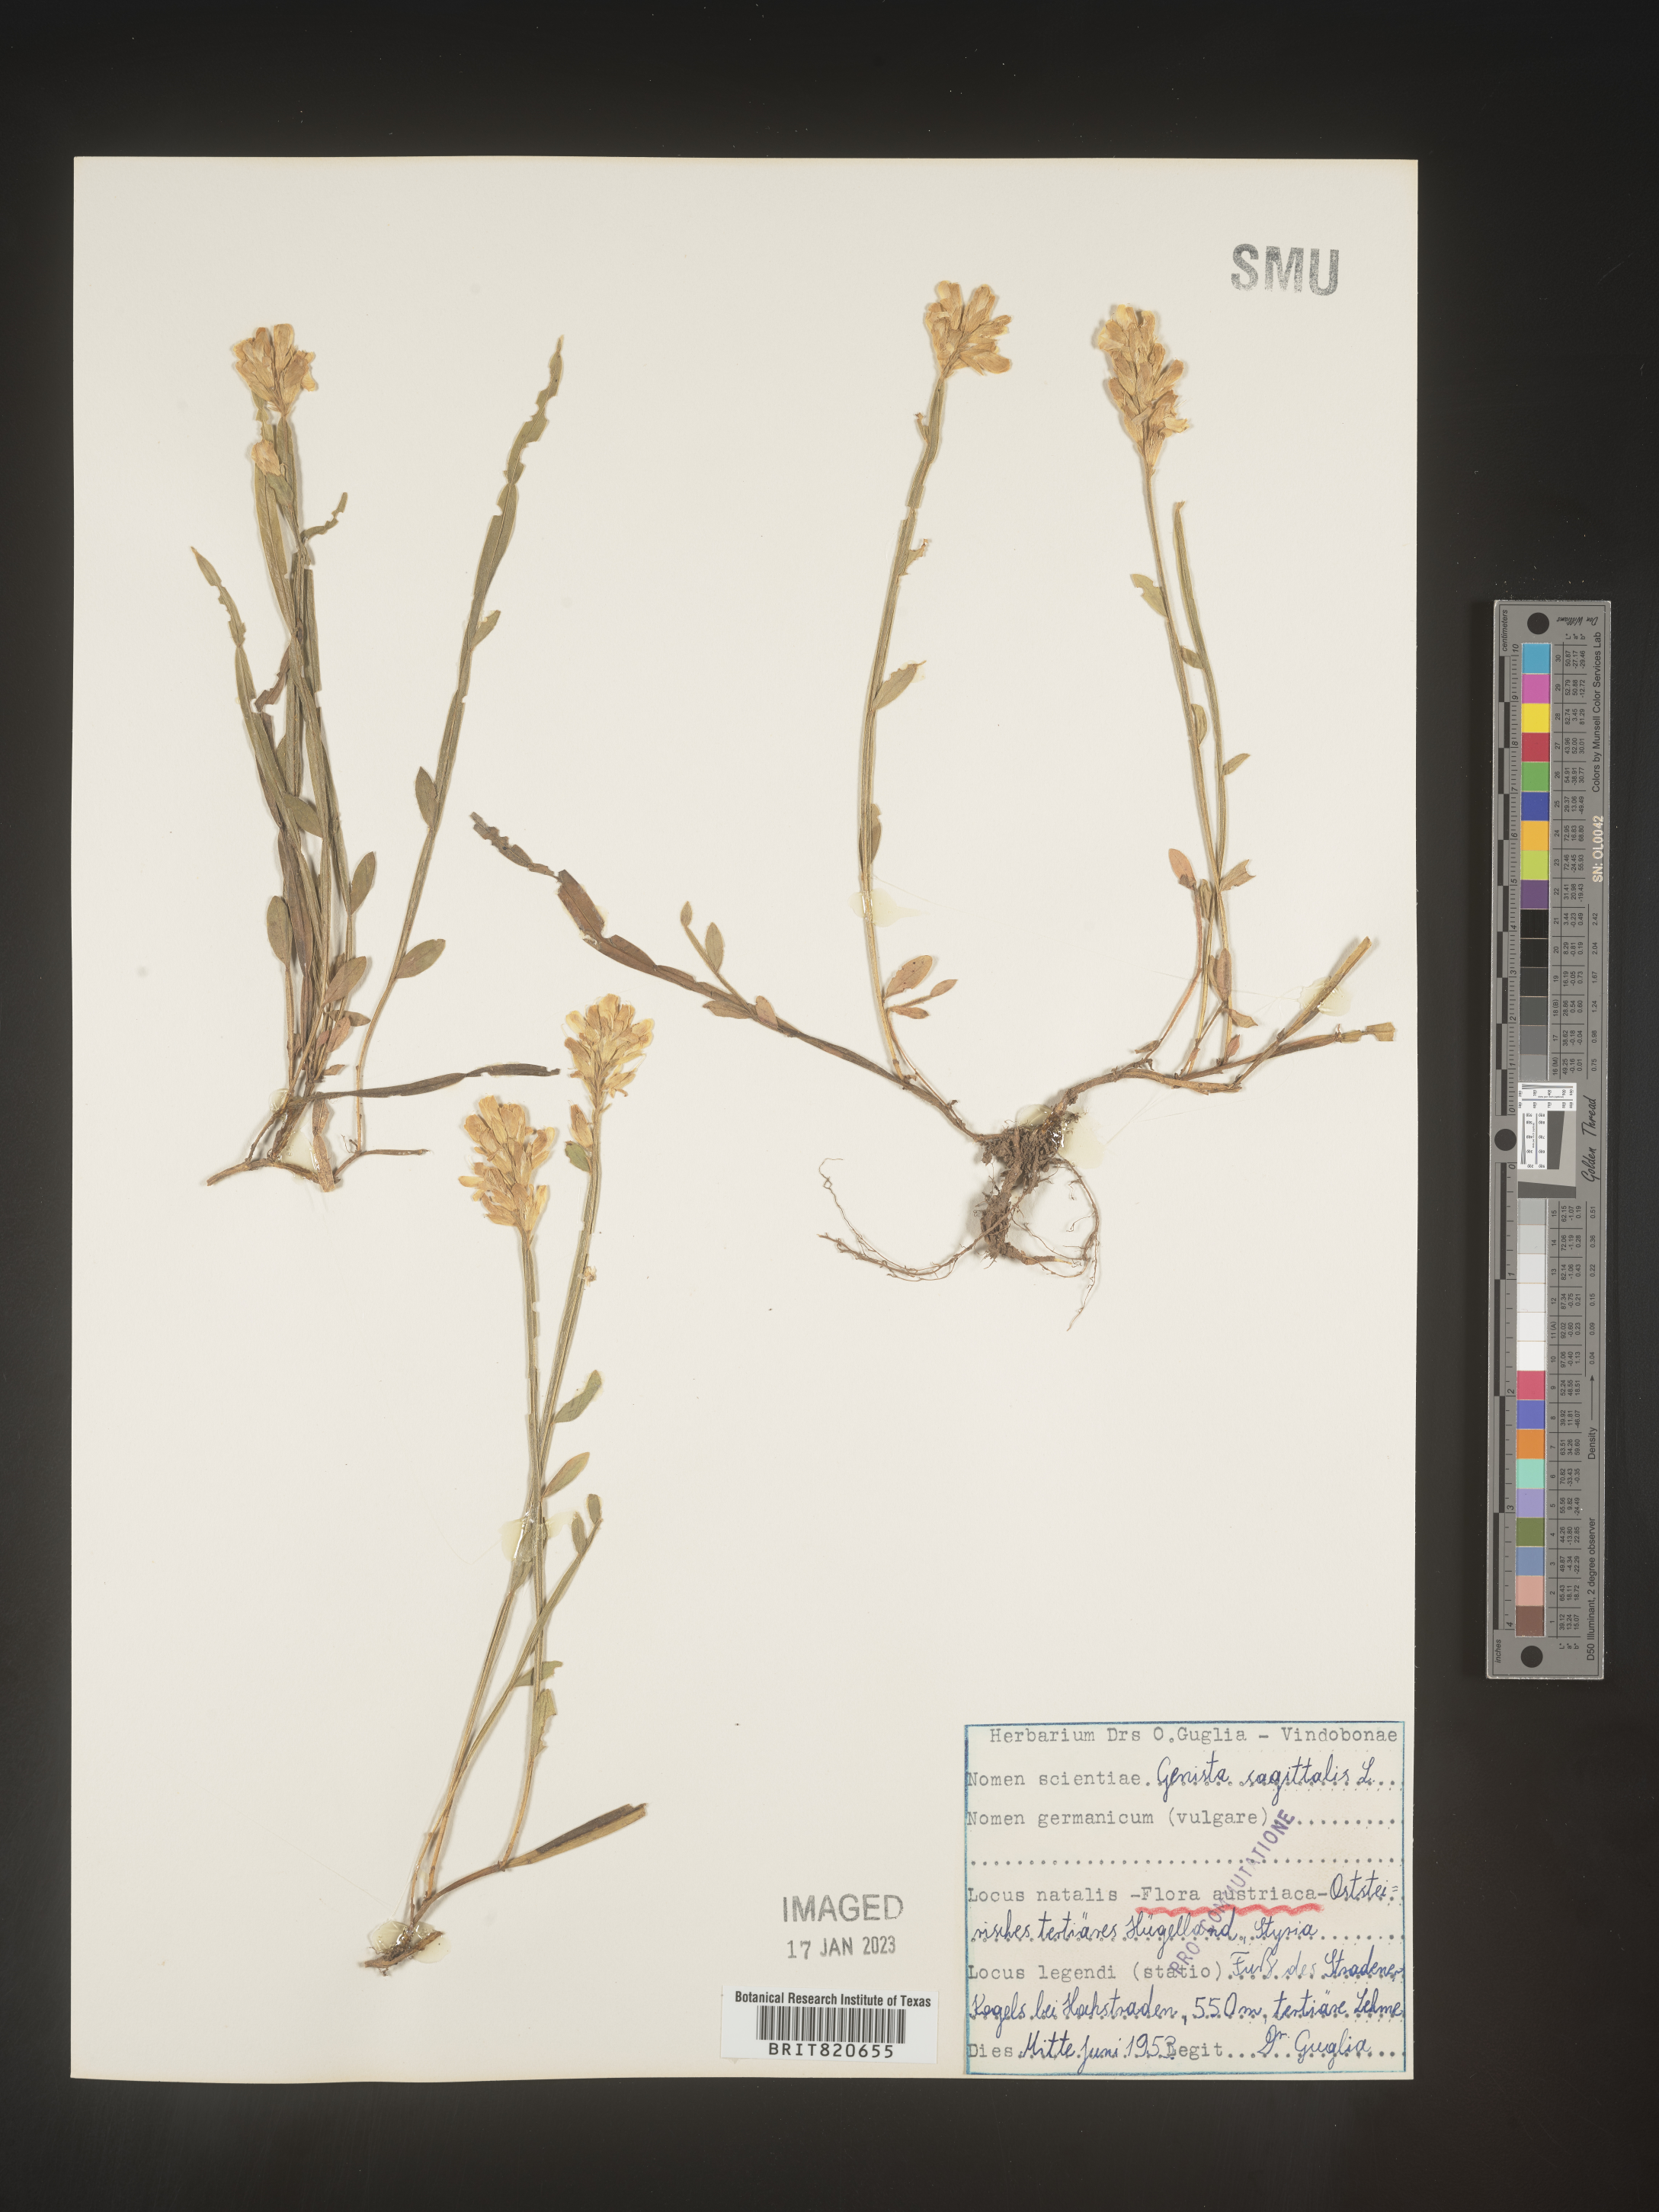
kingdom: Plantae
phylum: Tracheophyta
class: Magnoliopsida
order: Fabales
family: Fabaceae
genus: Genista
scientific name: Genista
